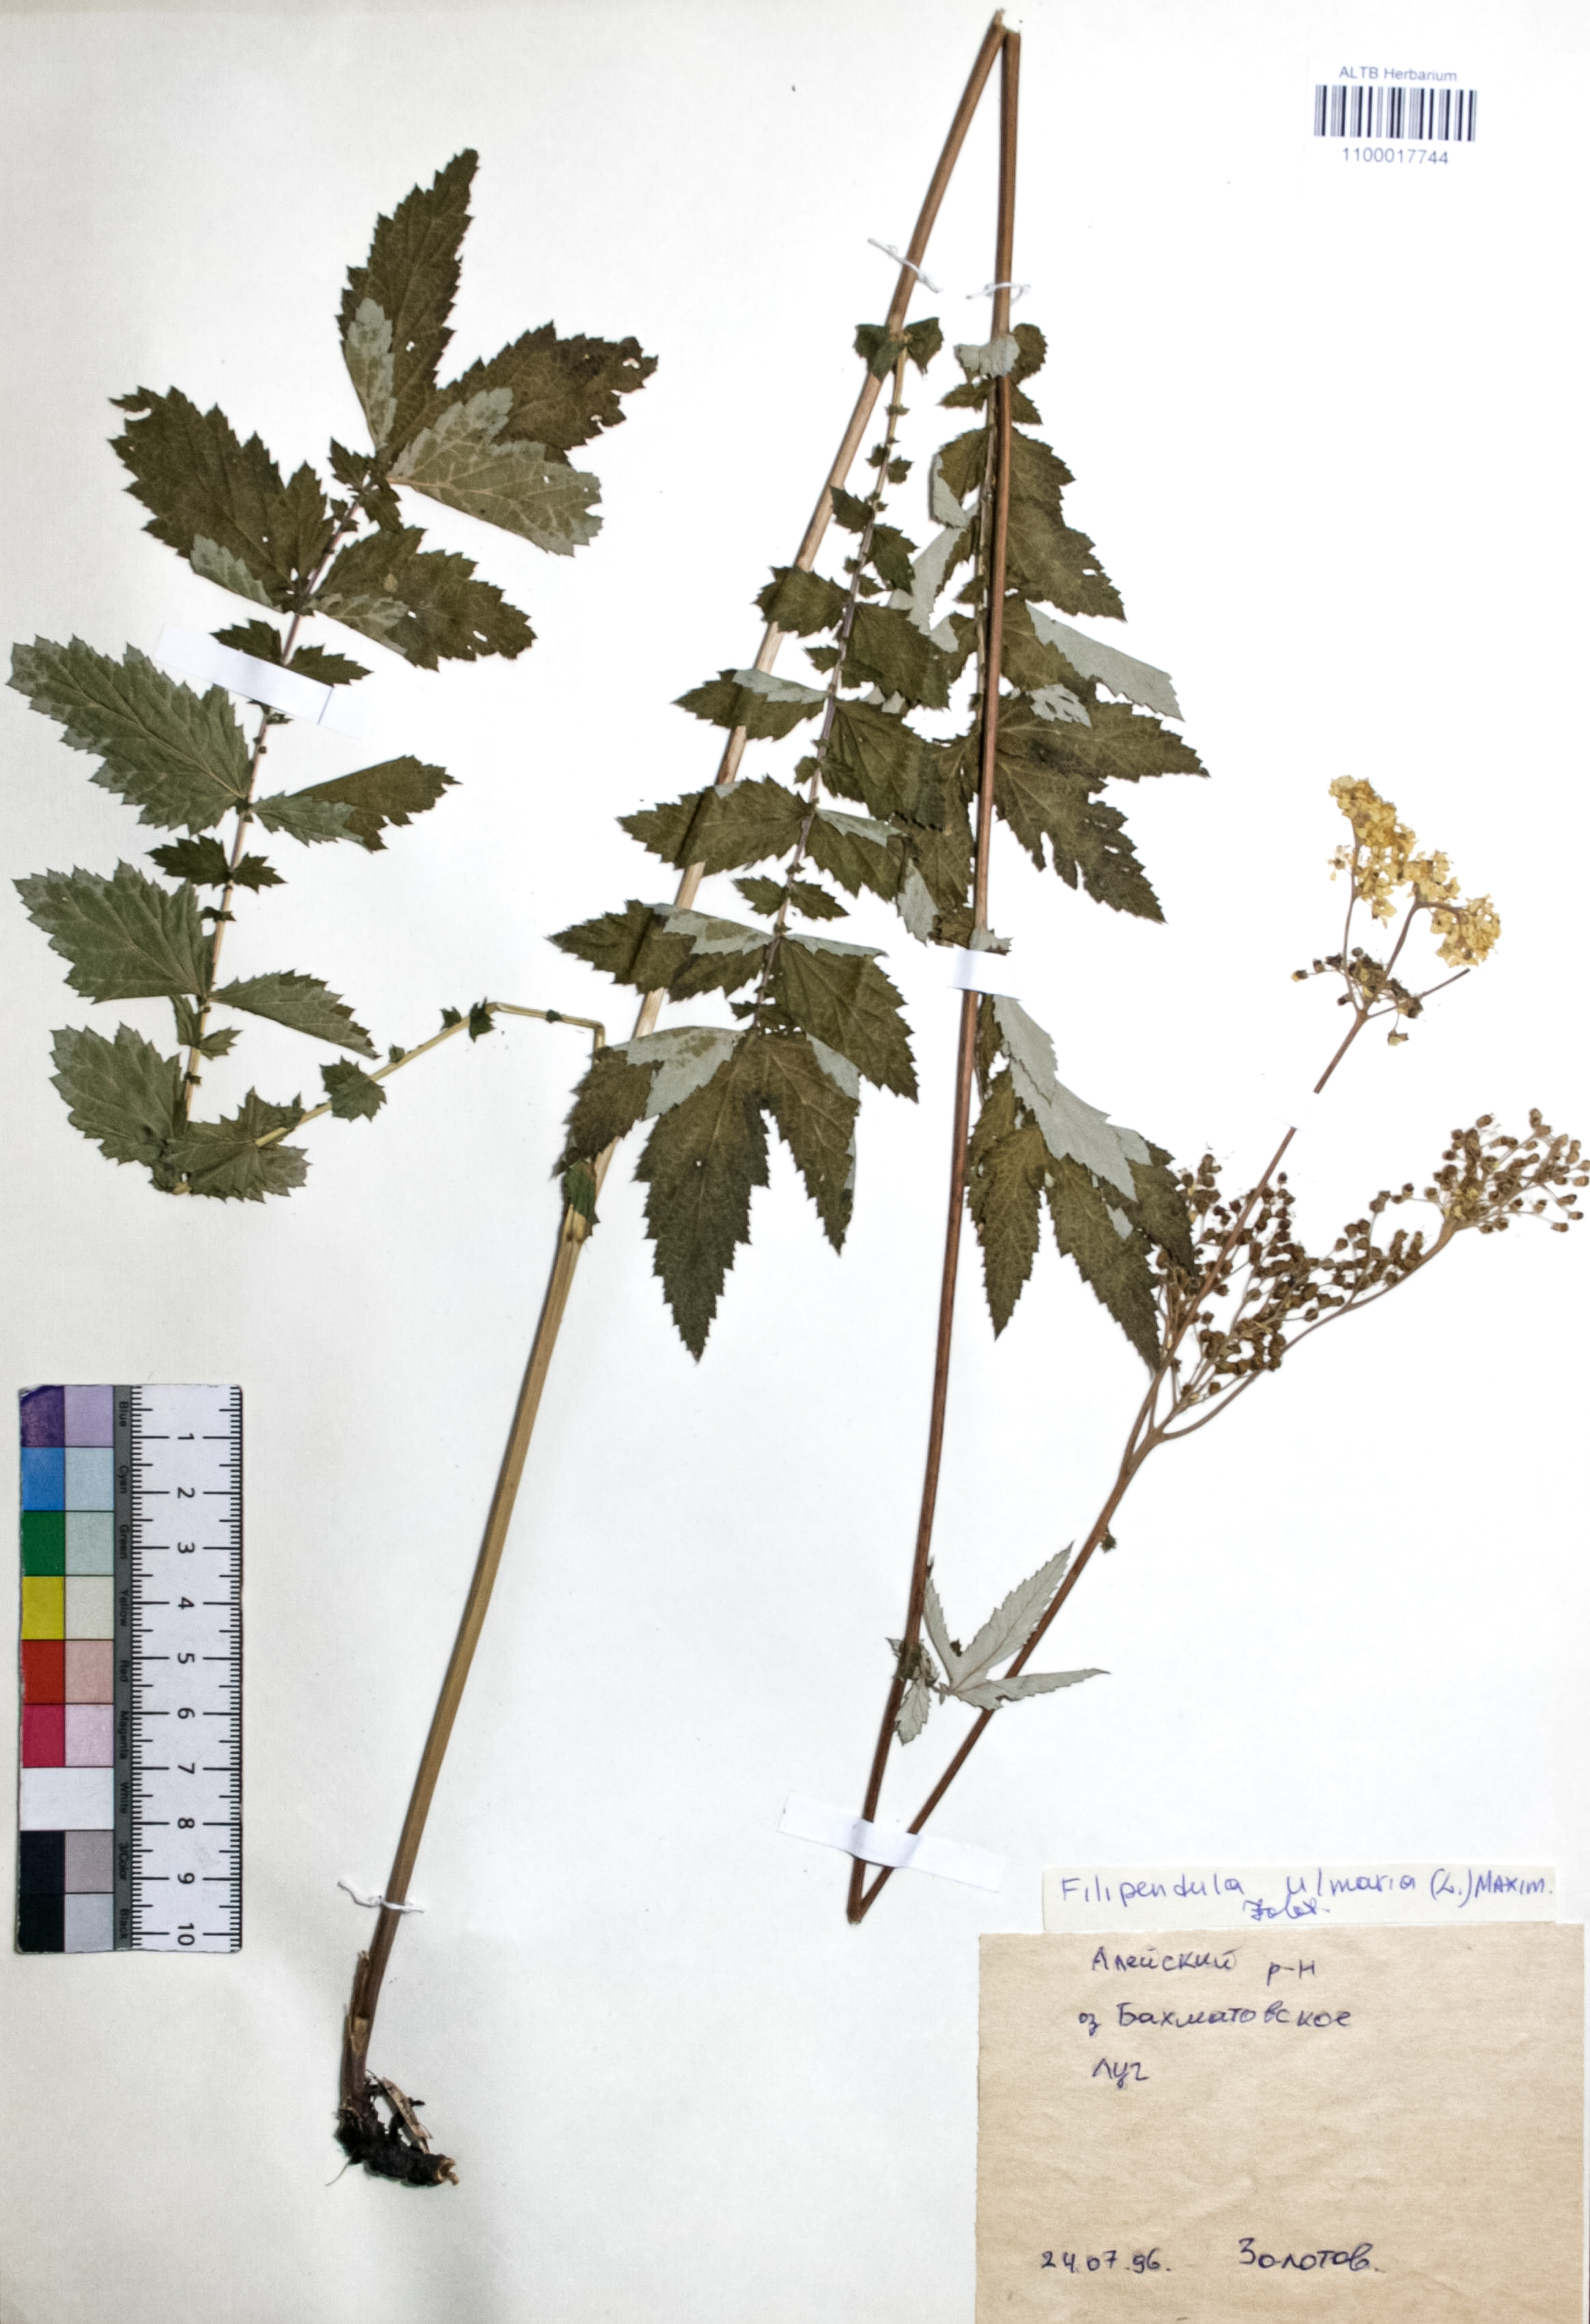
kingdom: Plantae
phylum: Tracheophyta
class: Magnoliopsida
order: Rosales
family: Rosaceae
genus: Filipendula
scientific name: Filipendula ulmaria
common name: Meadowsweet
